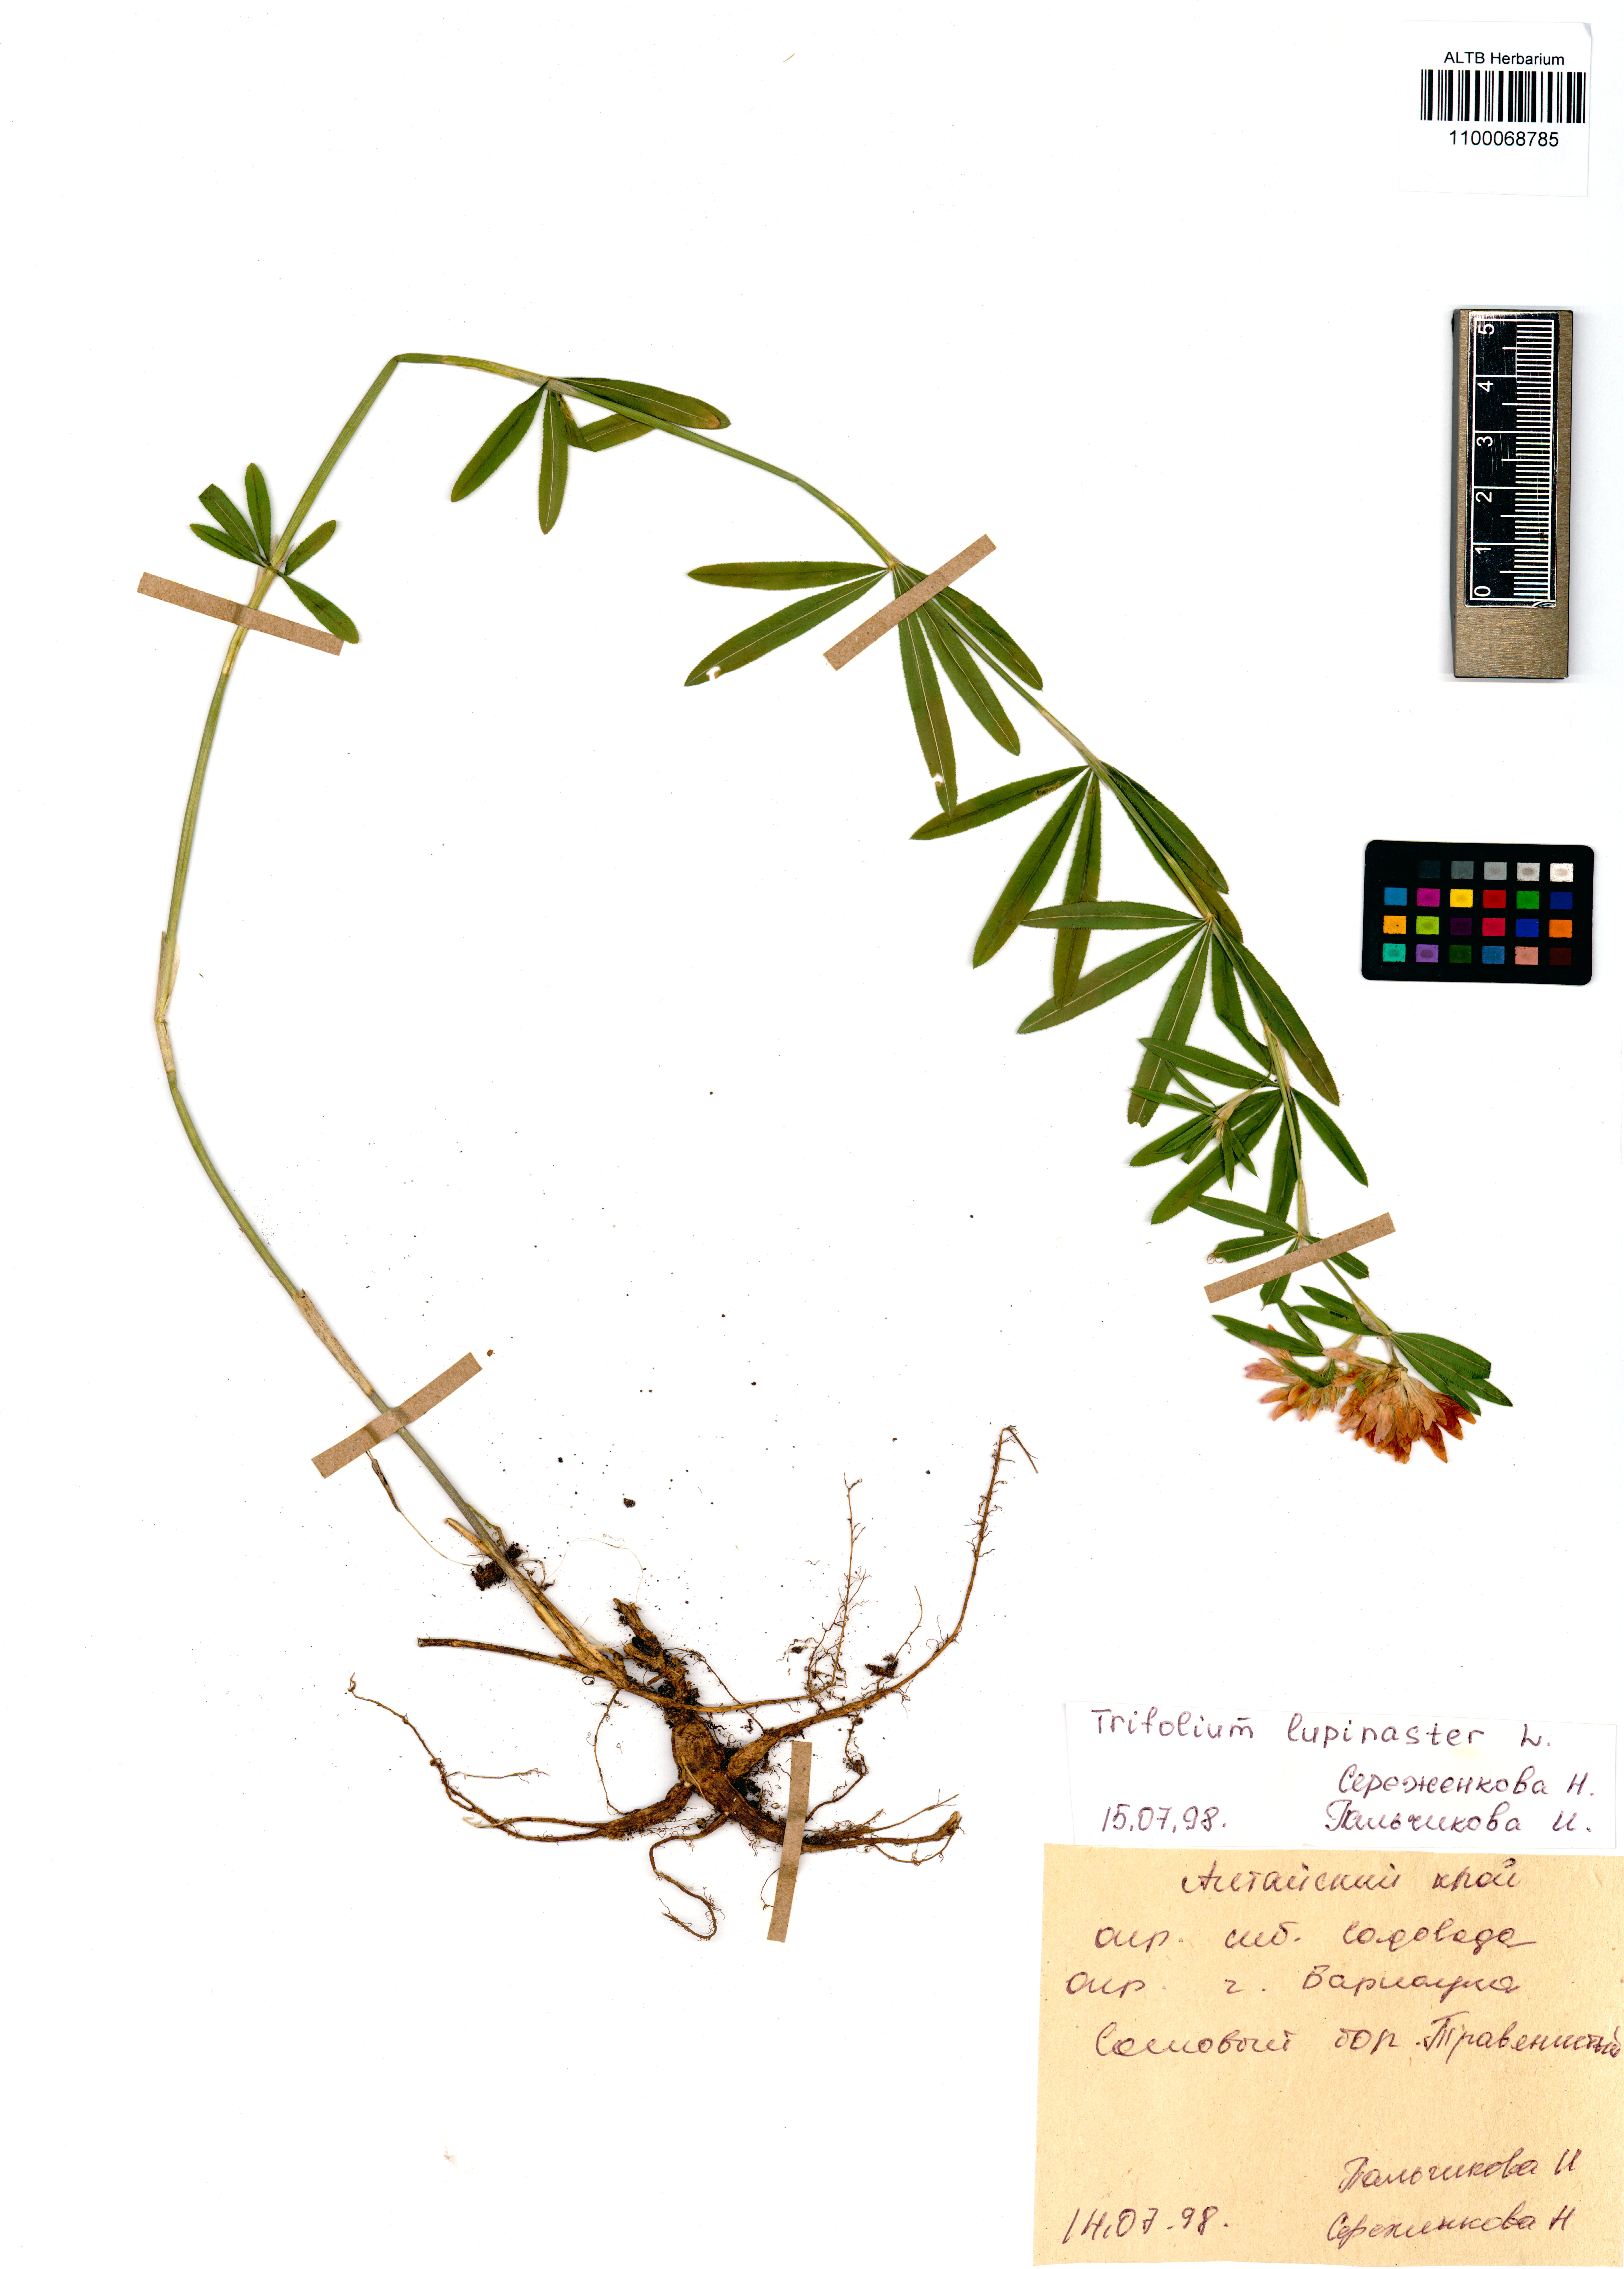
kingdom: Plantae
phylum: Tracheophyta
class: Magnoliopsida
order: Fabales
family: Fabaceae
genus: Trifolium
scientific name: Trifolium lupinaster
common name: Lupine clover
